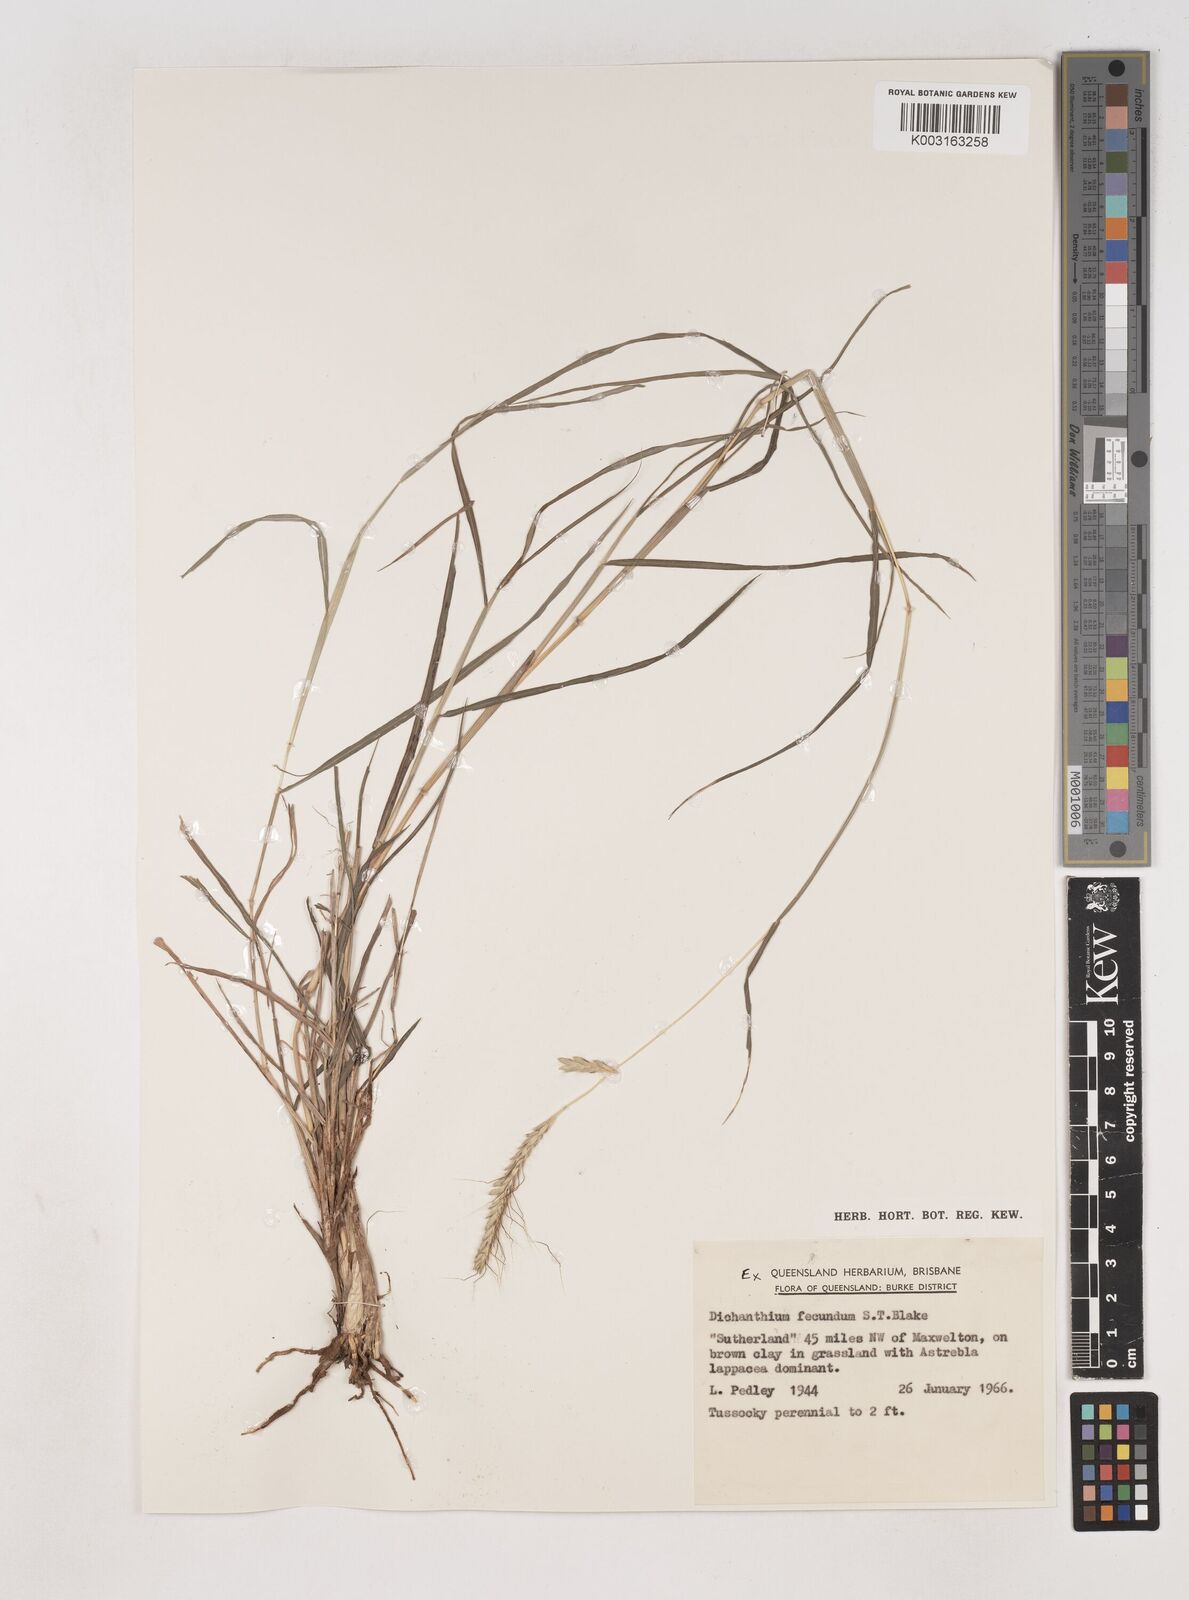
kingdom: Plantae
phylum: Tracheophyta
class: Liliopsida
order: Poales
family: Poaceae
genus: Dichanthium
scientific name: Dichanthium fecundum
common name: Bundle-bundle
